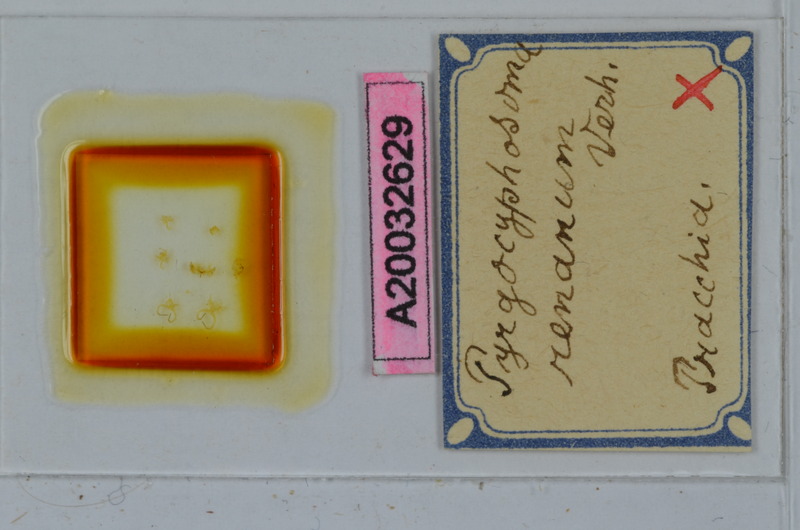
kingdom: Animalia
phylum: Arthropoda
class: Diplopoda
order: Chordeumatida
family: Craspedosomatidae
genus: Pyrgocyphosoma
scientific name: Pyrgocyphosoma renanum
